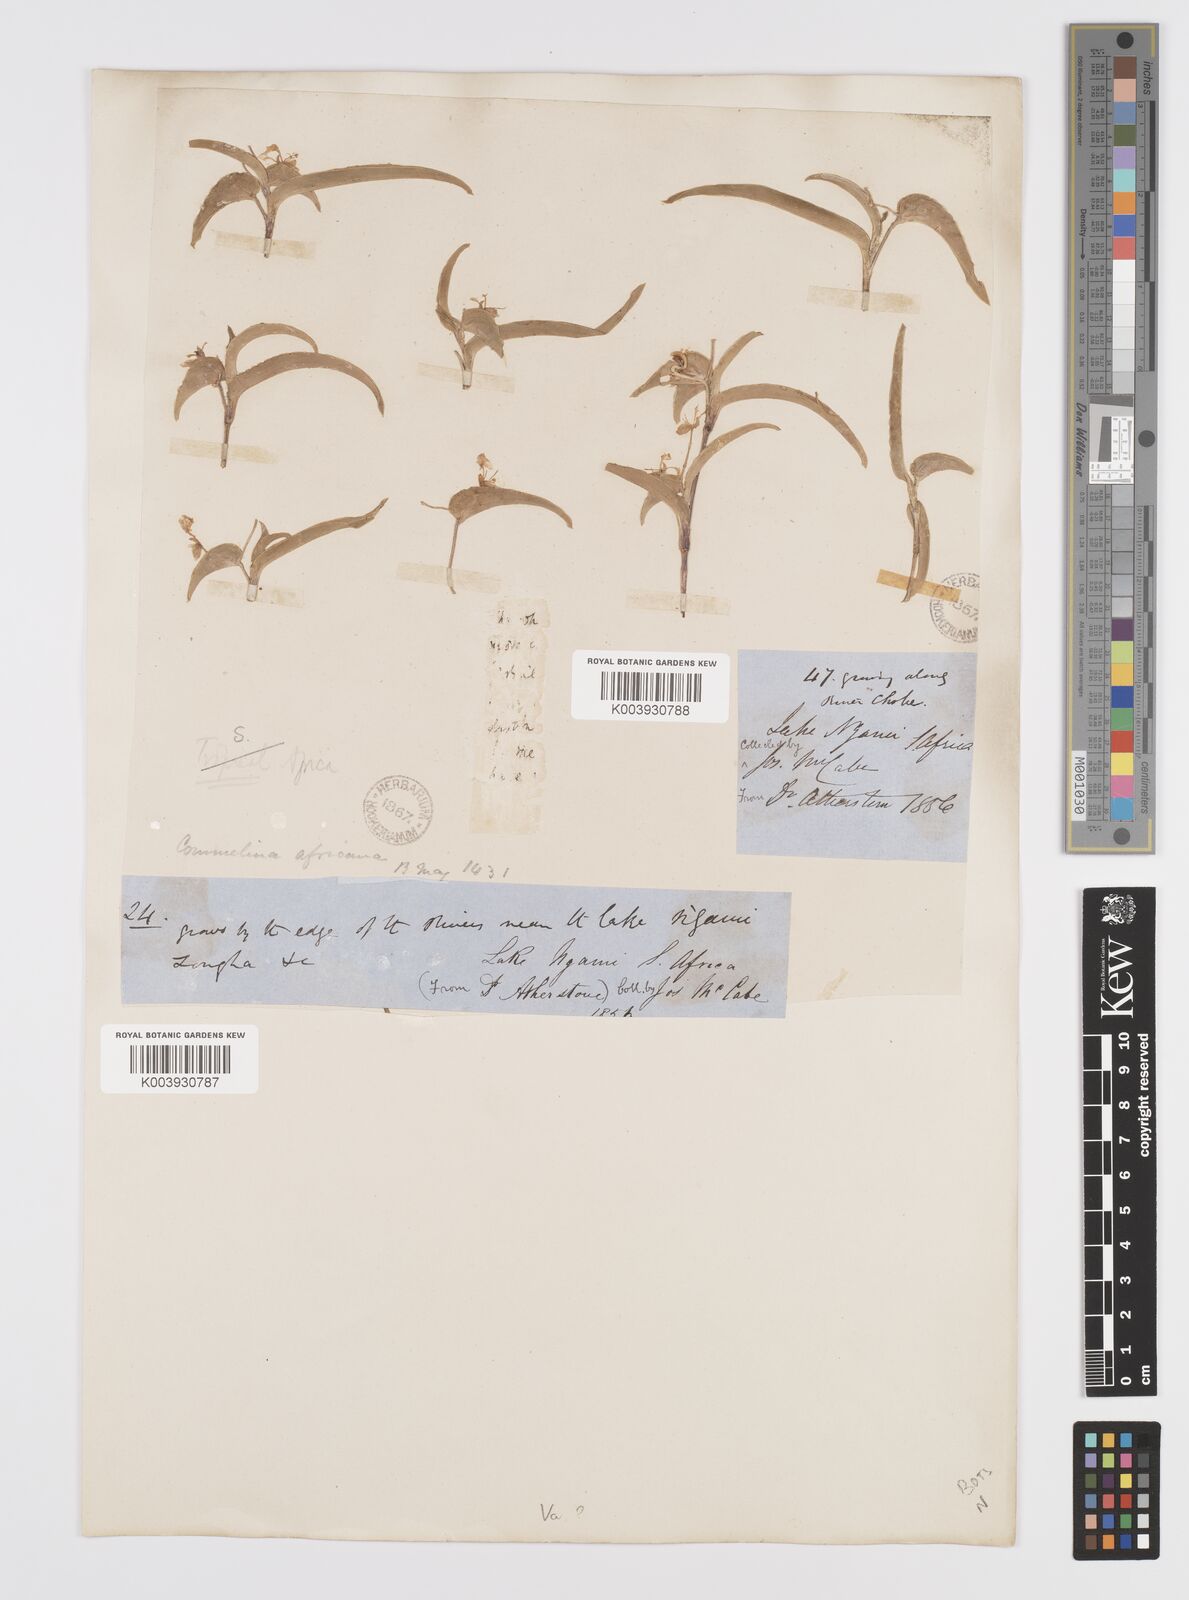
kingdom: Plantae
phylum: Tracheophyta
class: Liliopsida
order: Commelinales
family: Commelinaceae
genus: Commelina
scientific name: Commelina africana
